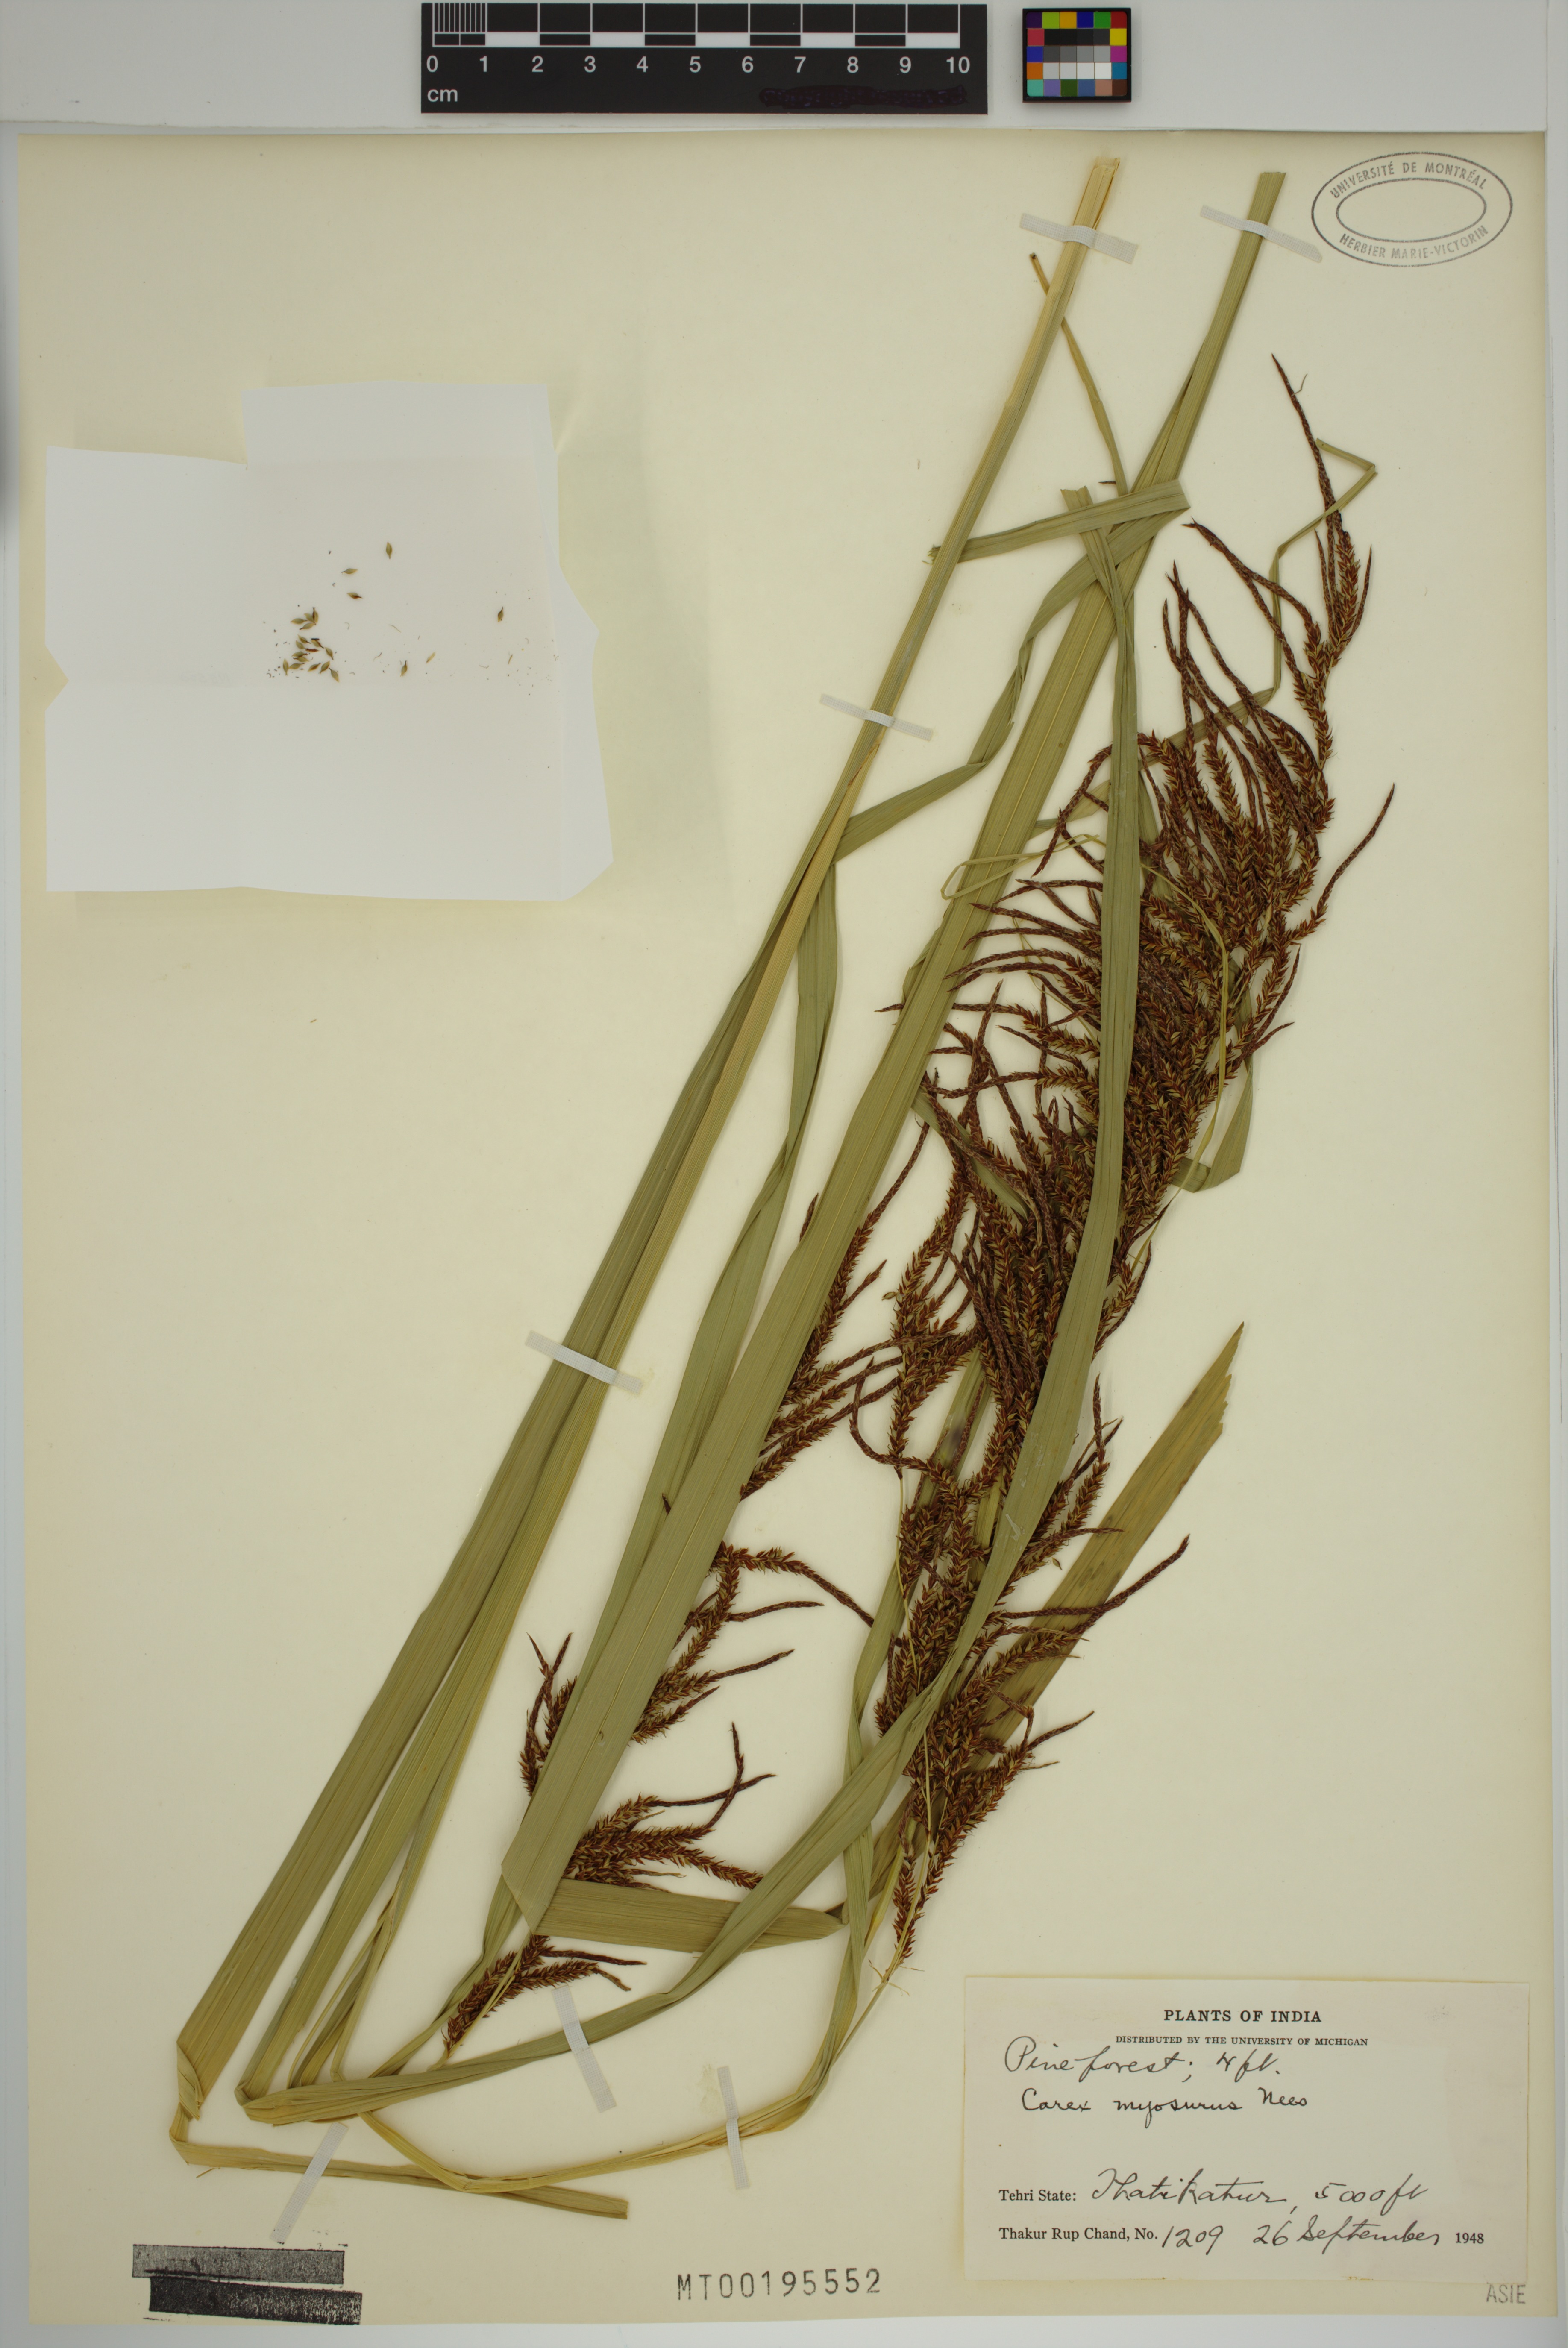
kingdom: Plantae
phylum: Tracheophyta
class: Liliopsida
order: Poales
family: Cyperaceae
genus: Carex
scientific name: Carex myosurus
